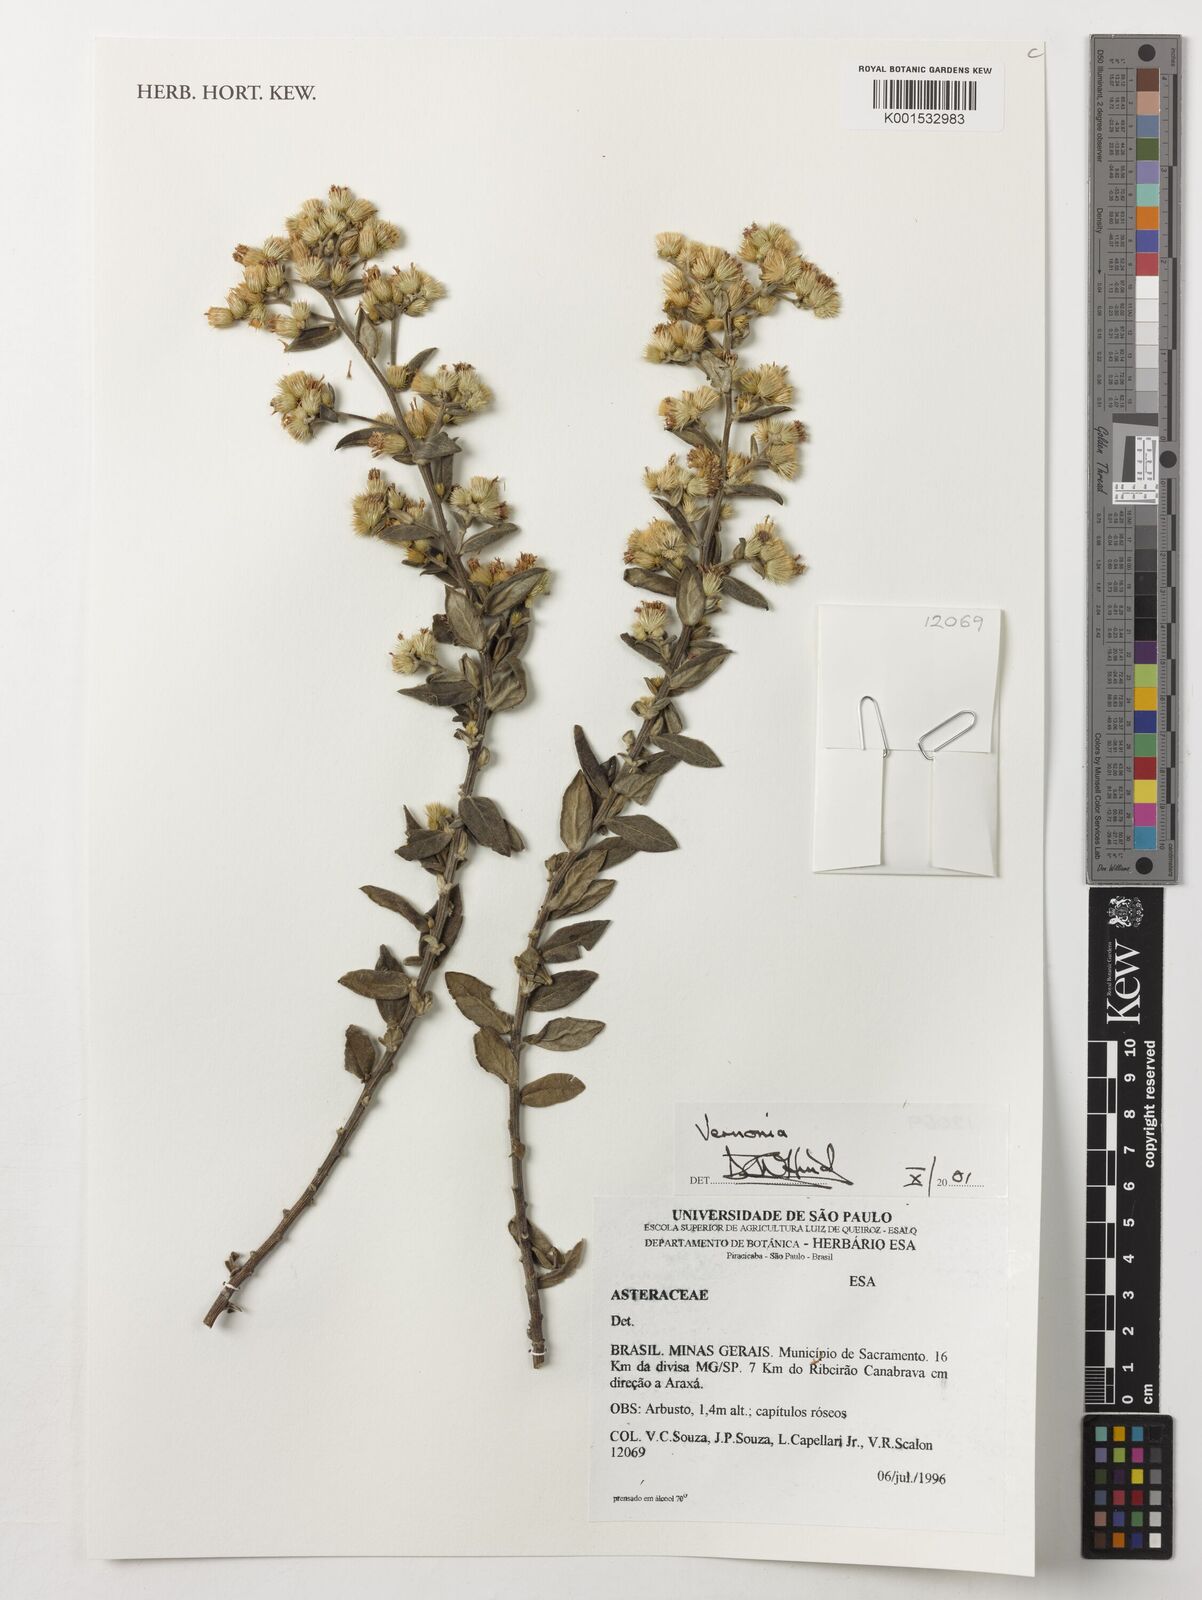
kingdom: Plantae
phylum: Tracheophyta
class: Magnoliopsida
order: Asterales
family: Asteraceae
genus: Vernonia
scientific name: Vernonia
